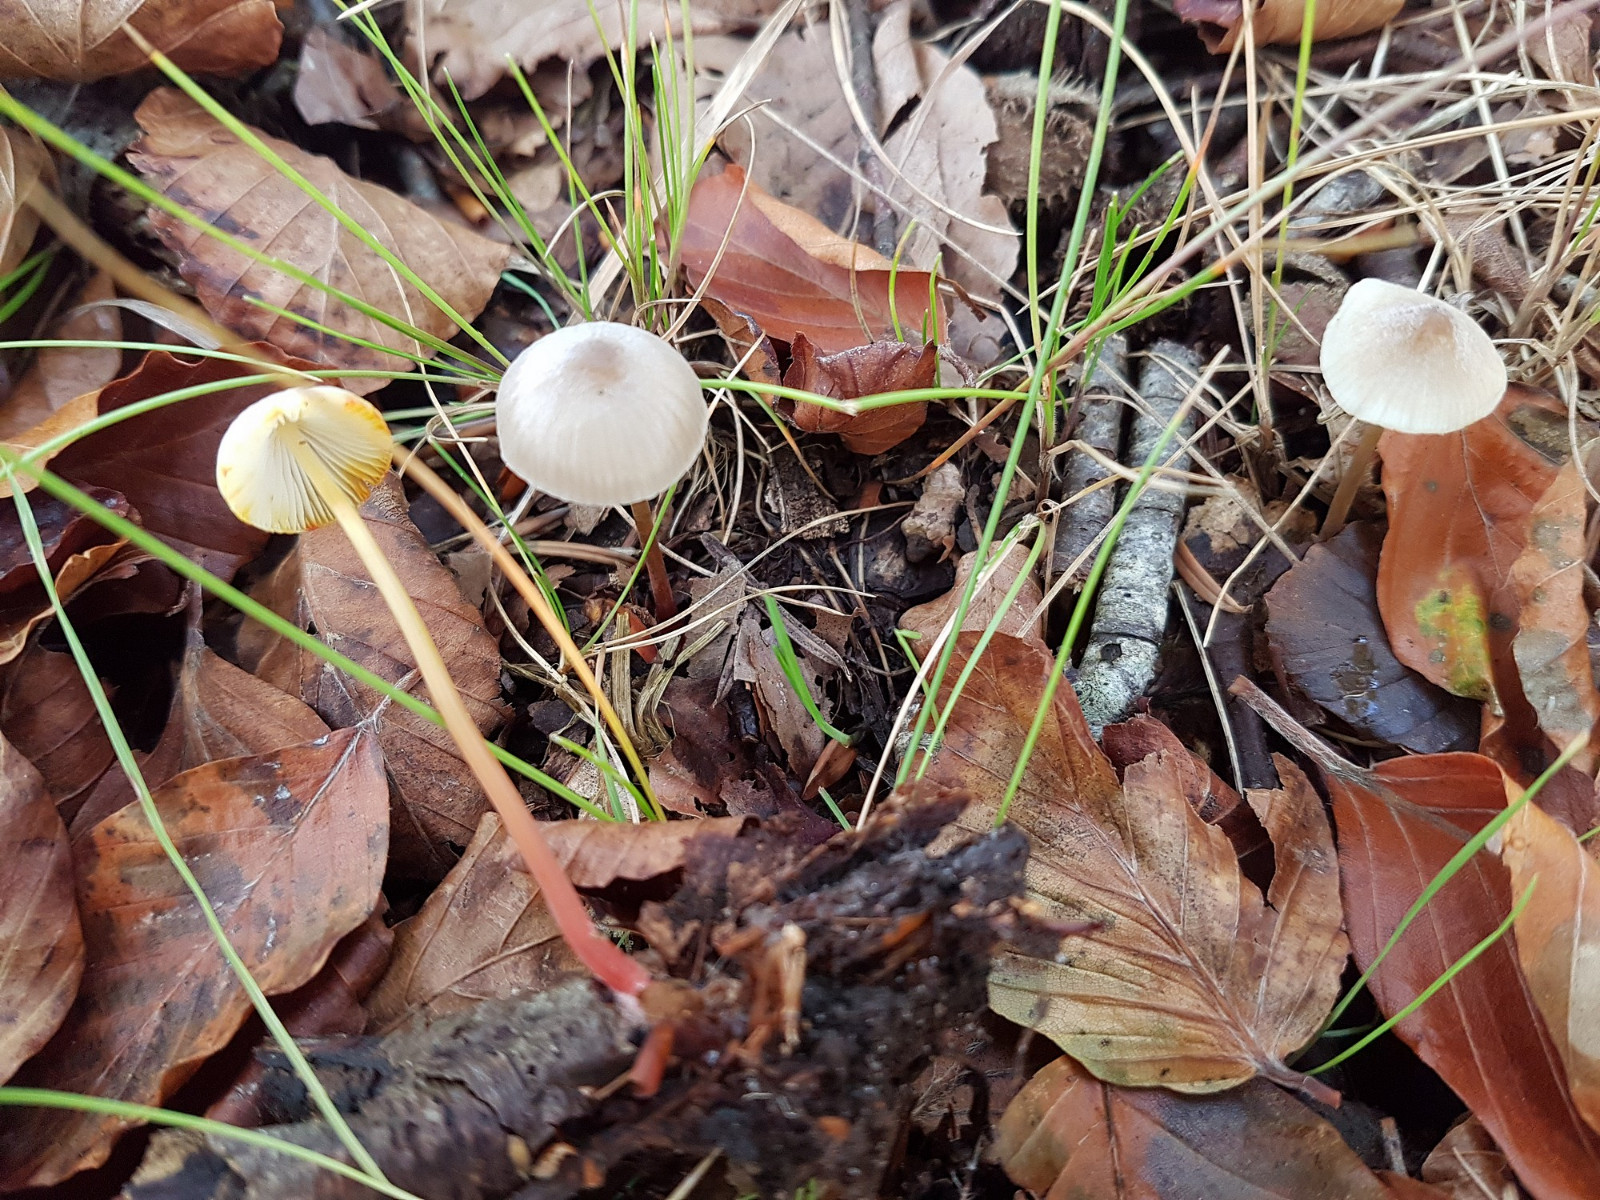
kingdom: Fungi
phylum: Basidiomycota
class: Agaricomycetes
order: Agaricales
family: Mycenaceae
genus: Mycena
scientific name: Mycena crocata
